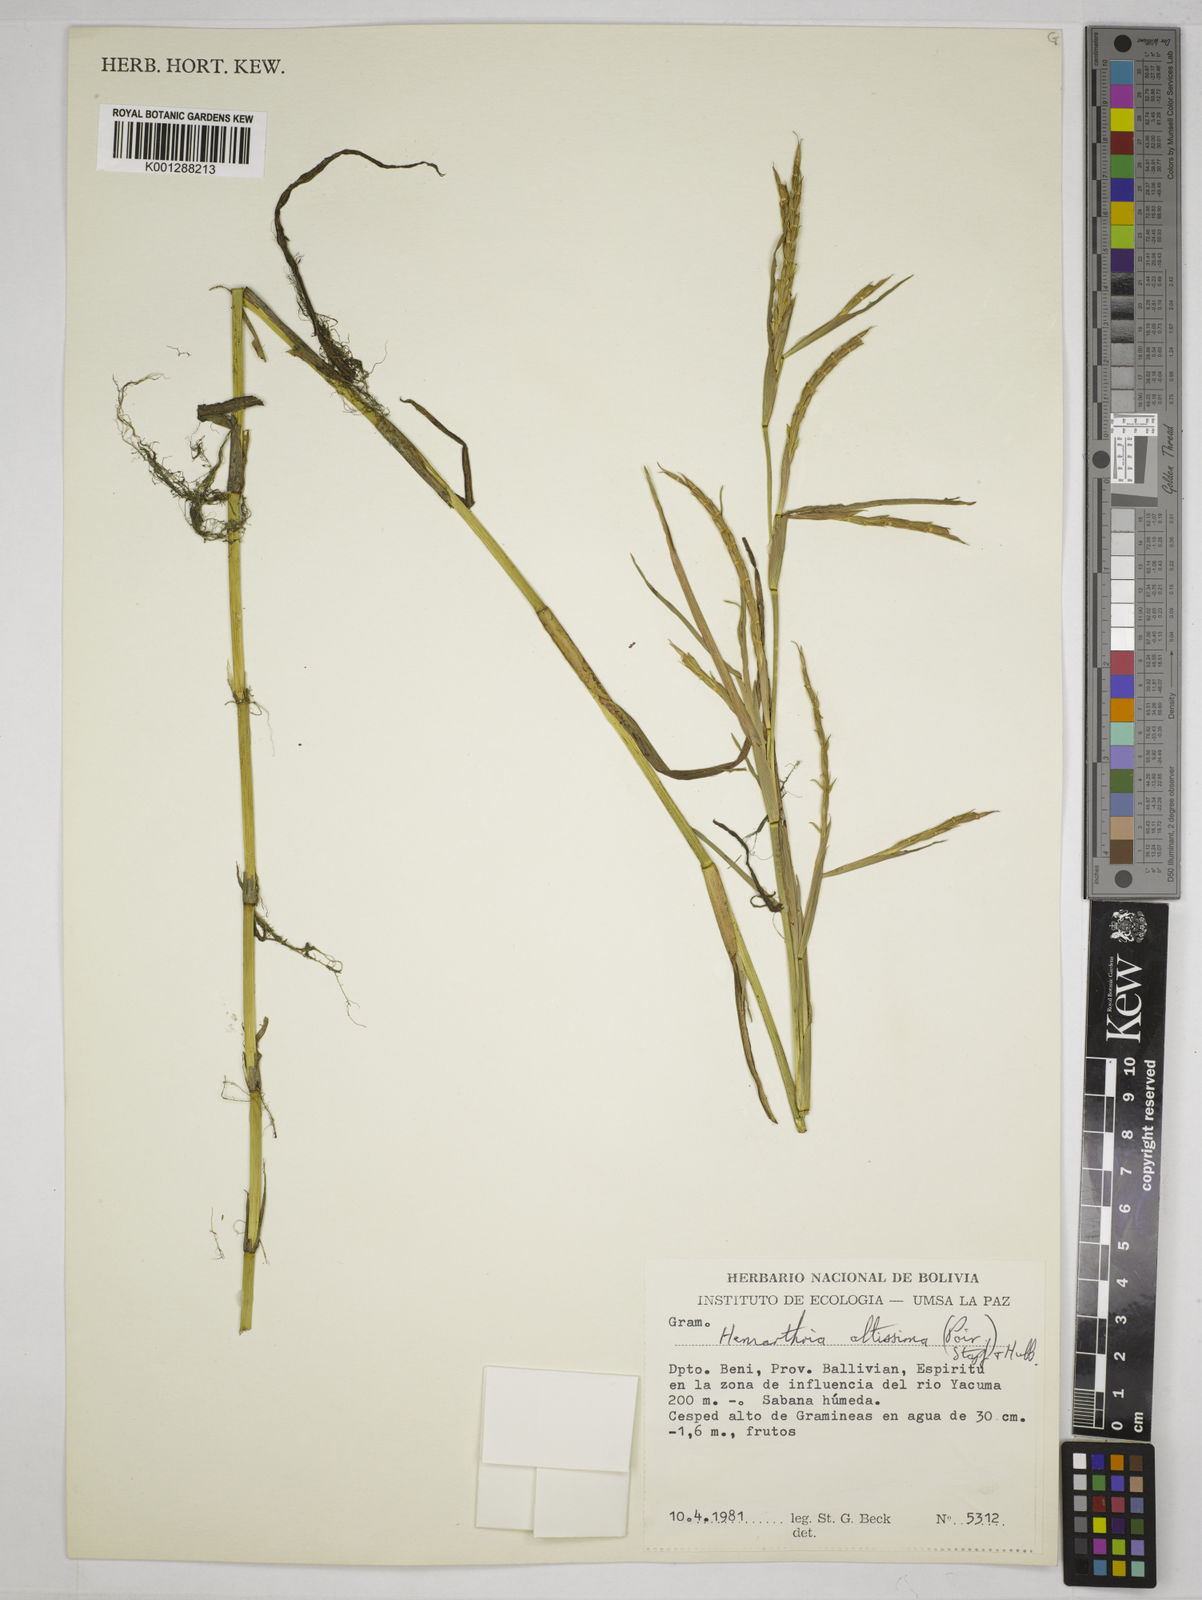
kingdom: Plantae
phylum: Tracheophyta
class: Liliopsida
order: Poales
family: Poaceae
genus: Hemarthria
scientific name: Hemarthria altissima
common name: African jointgrass
